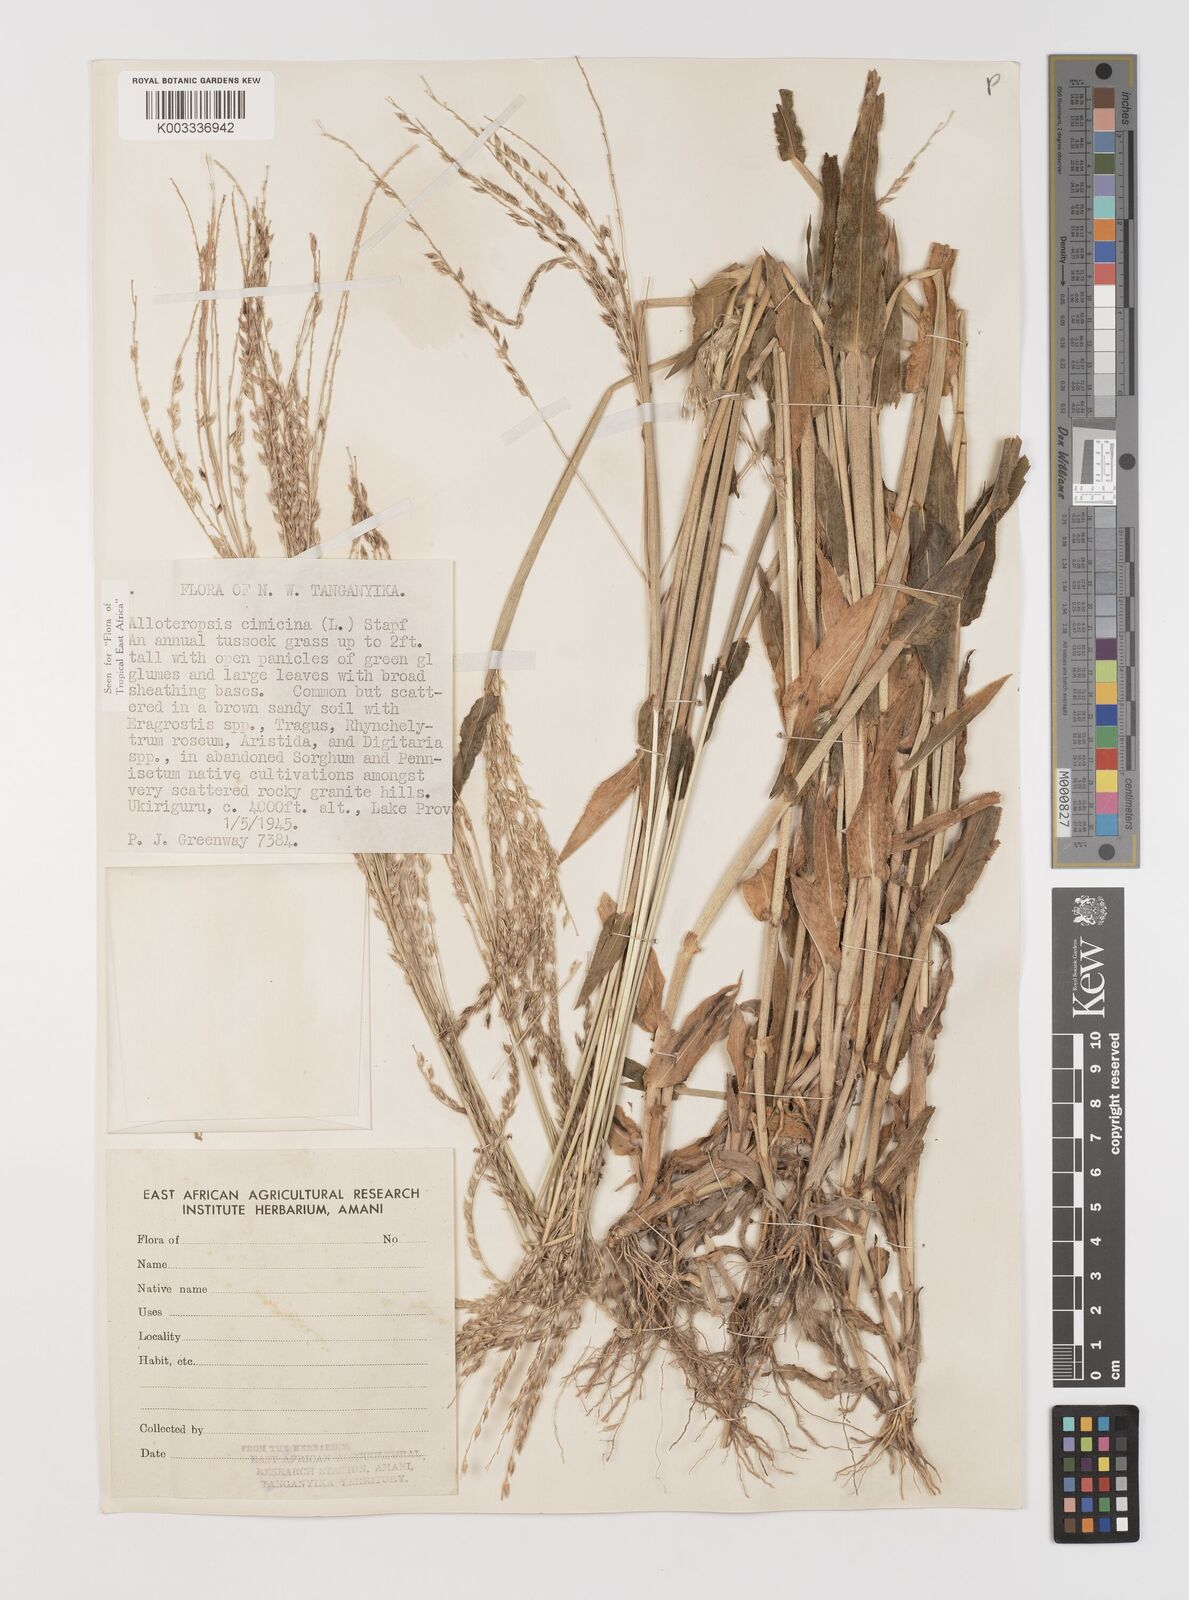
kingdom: Plantae
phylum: Tracheophyta
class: Liliopsida
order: Poales
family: Poaceae
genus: Alloteropsis
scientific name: Alloteropsis cimicina
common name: Summergrass
